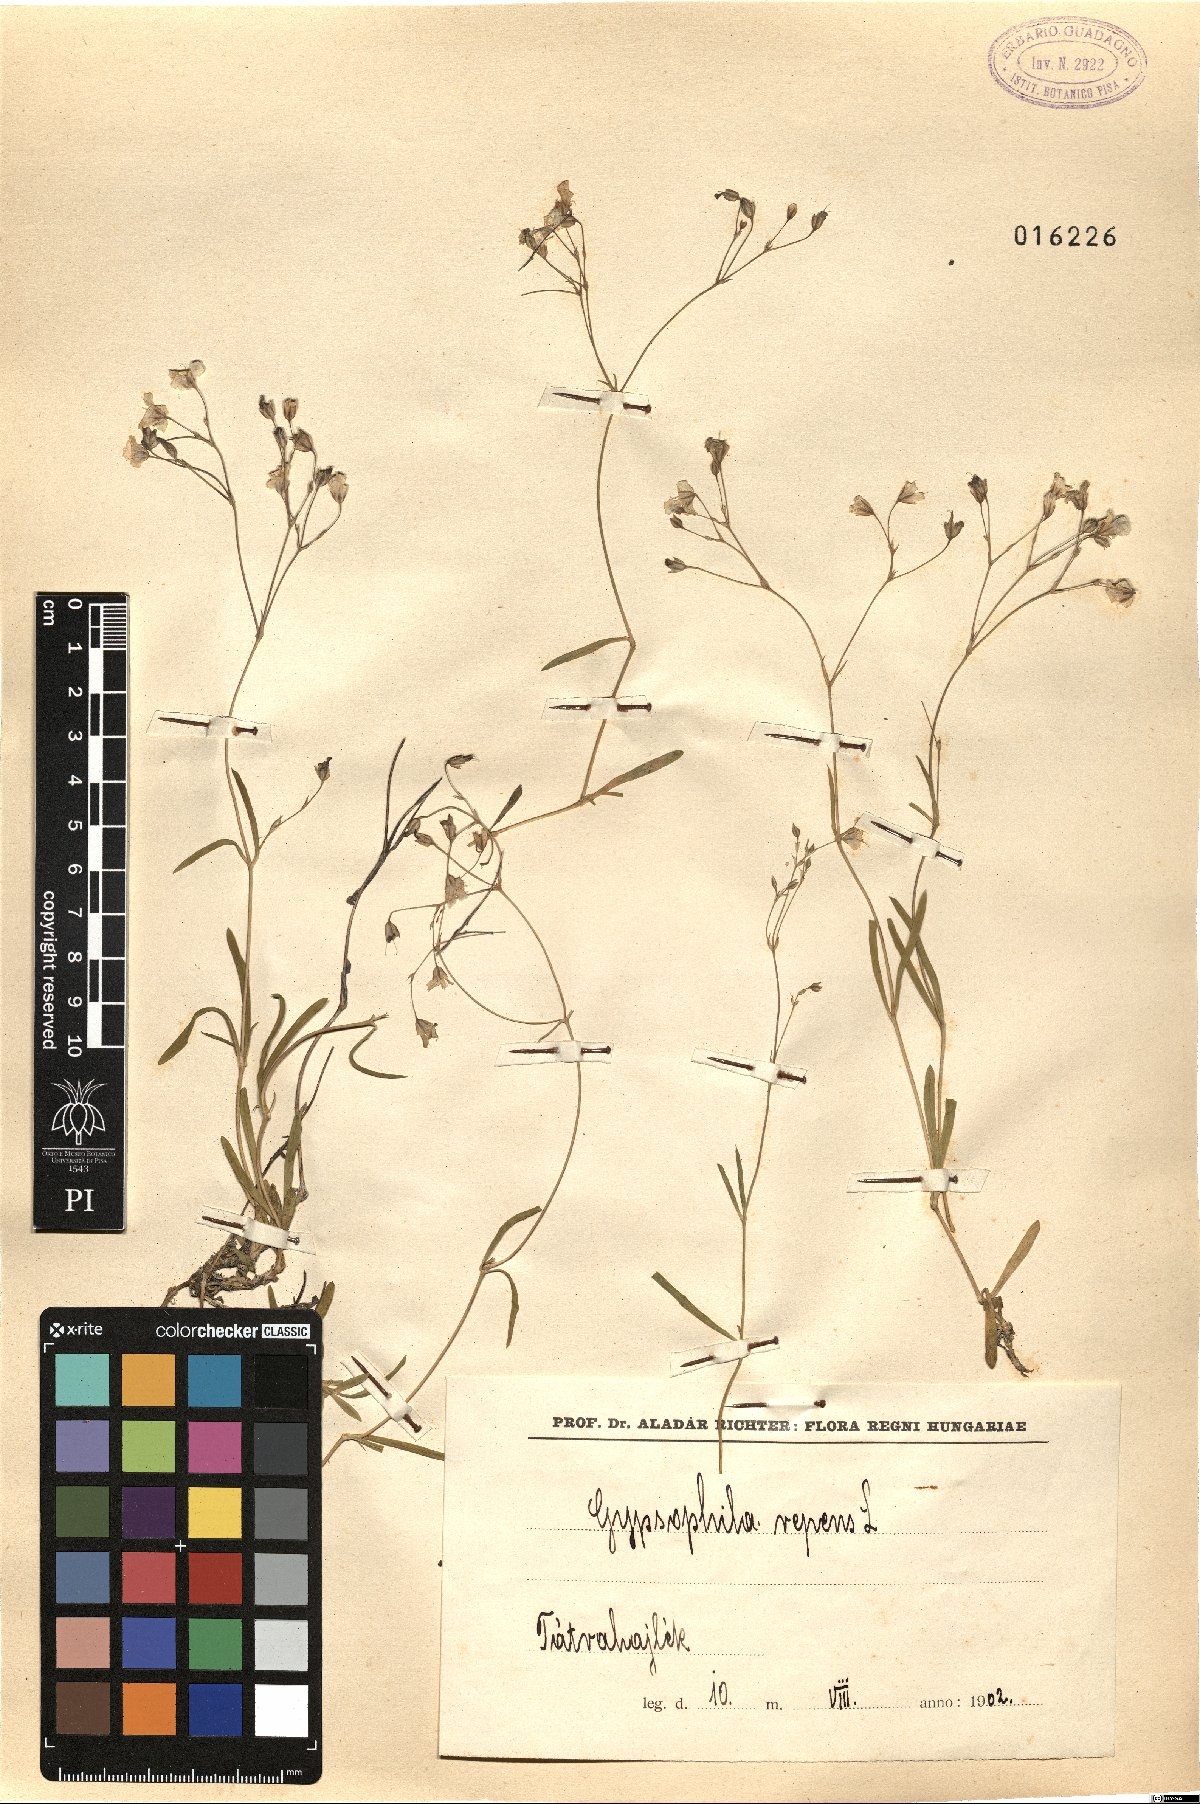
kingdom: Plantae
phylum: Tracheophyta
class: Magnoliopsida
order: Caryophyllales
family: Caryophyllaceae
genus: Gypsophila
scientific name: Gypsophila repens
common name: Creeping baby's-breath
